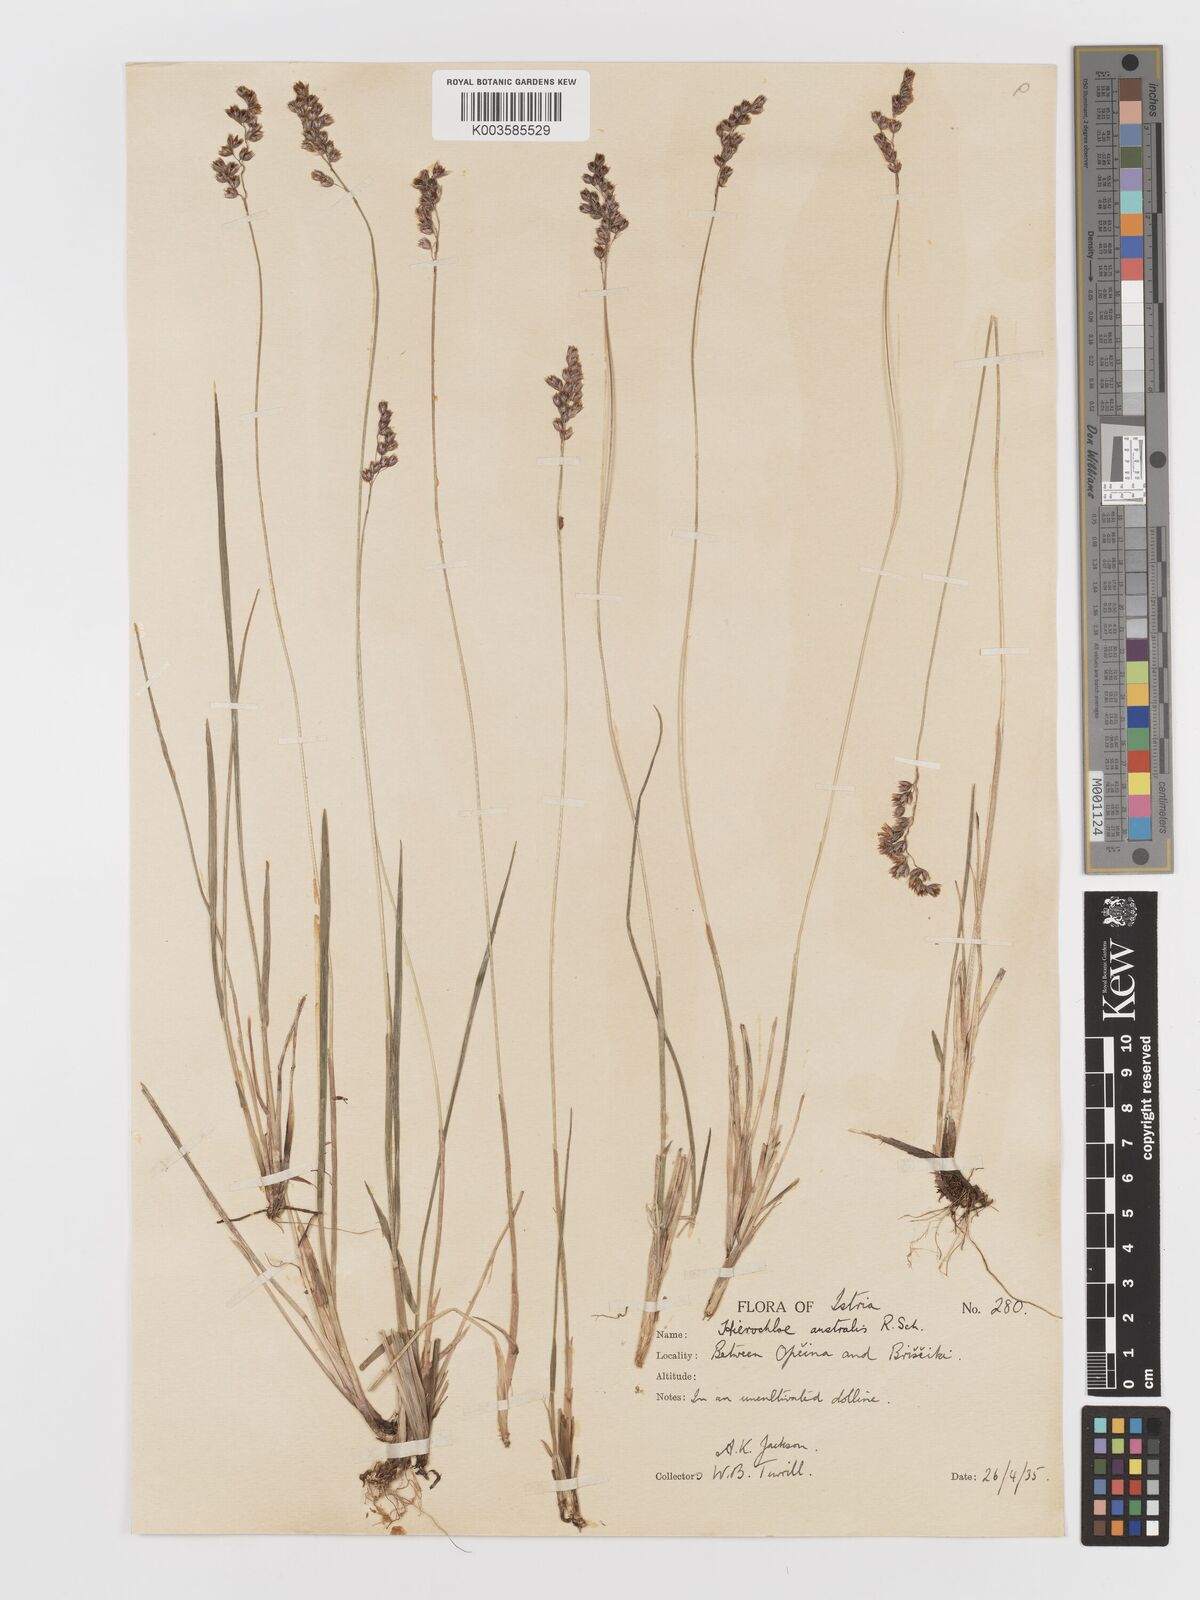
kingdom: Plantae
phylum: Tracheophyta
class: Liliopsida
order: Poales
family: Poaceae
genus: Anthoxanthum
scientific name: Anthoxanthum australe
